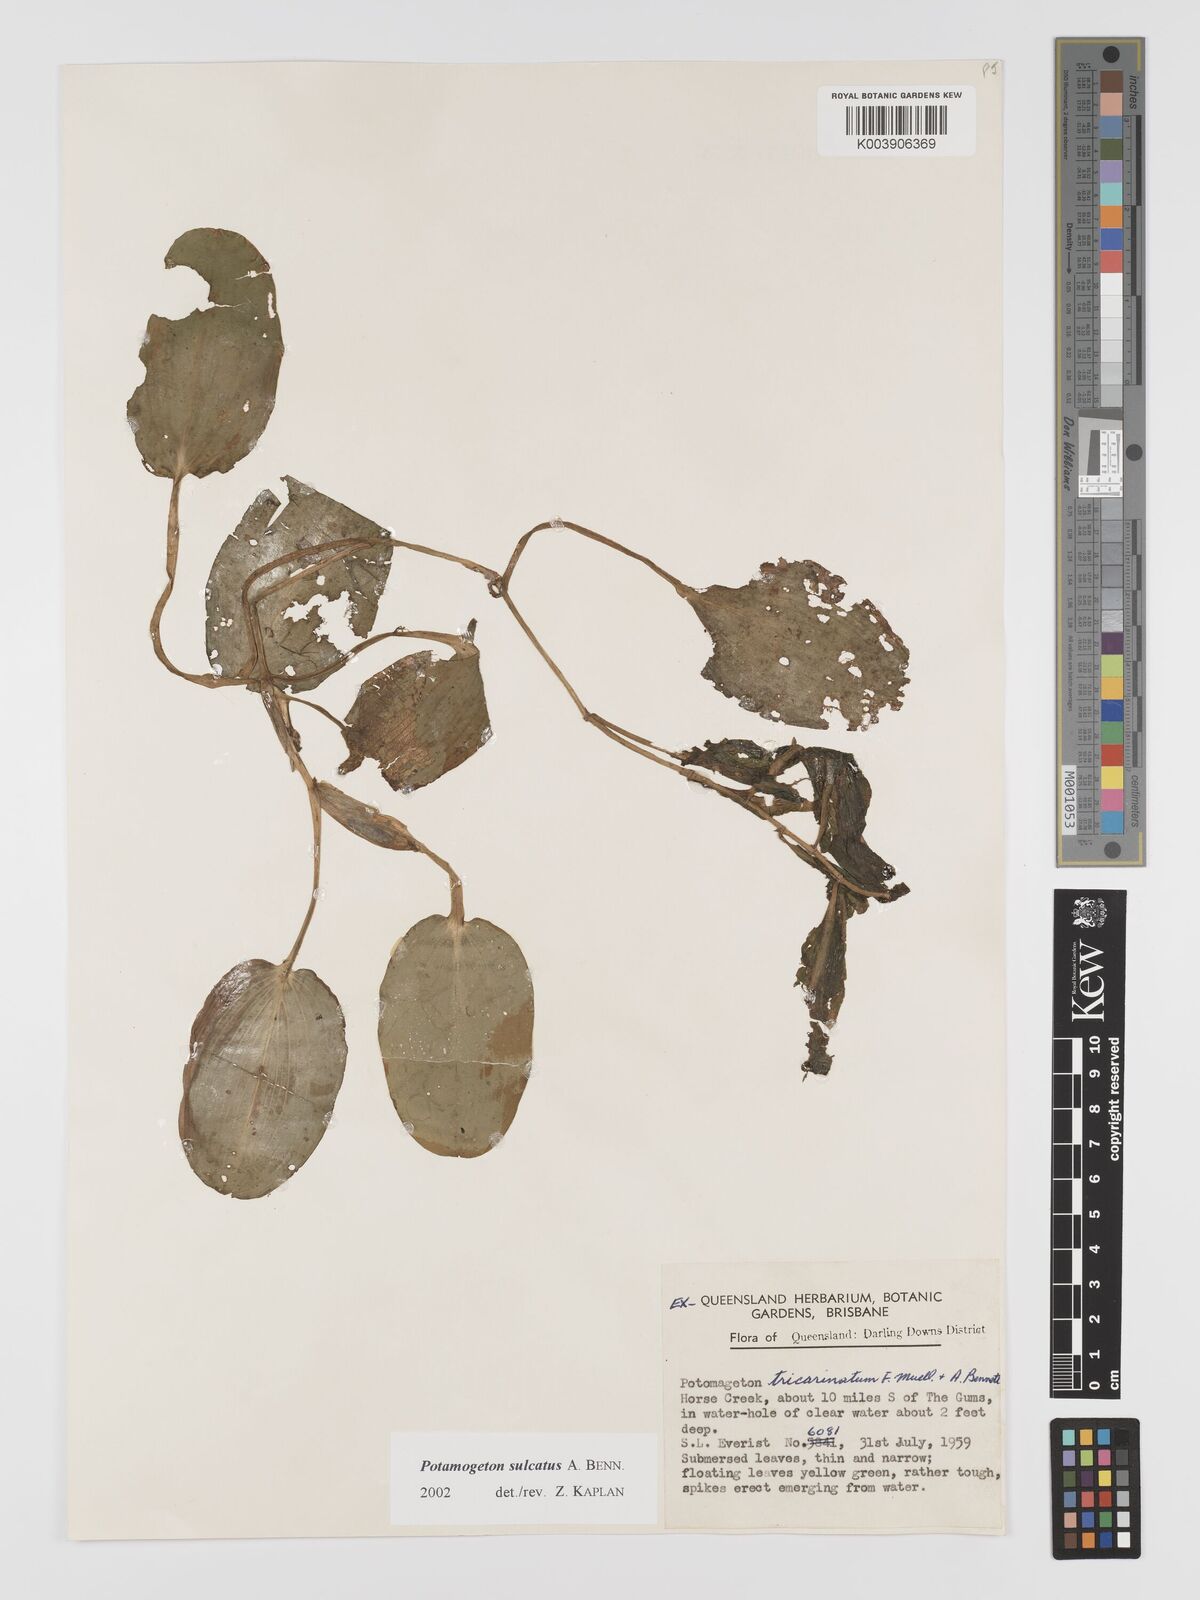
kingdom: Plantae
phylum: Tracheophyta
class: Liliopsida
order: Alismatales
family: Potamogetonaceae
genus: Potamogeton
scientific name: Potamogeton sulcatus
